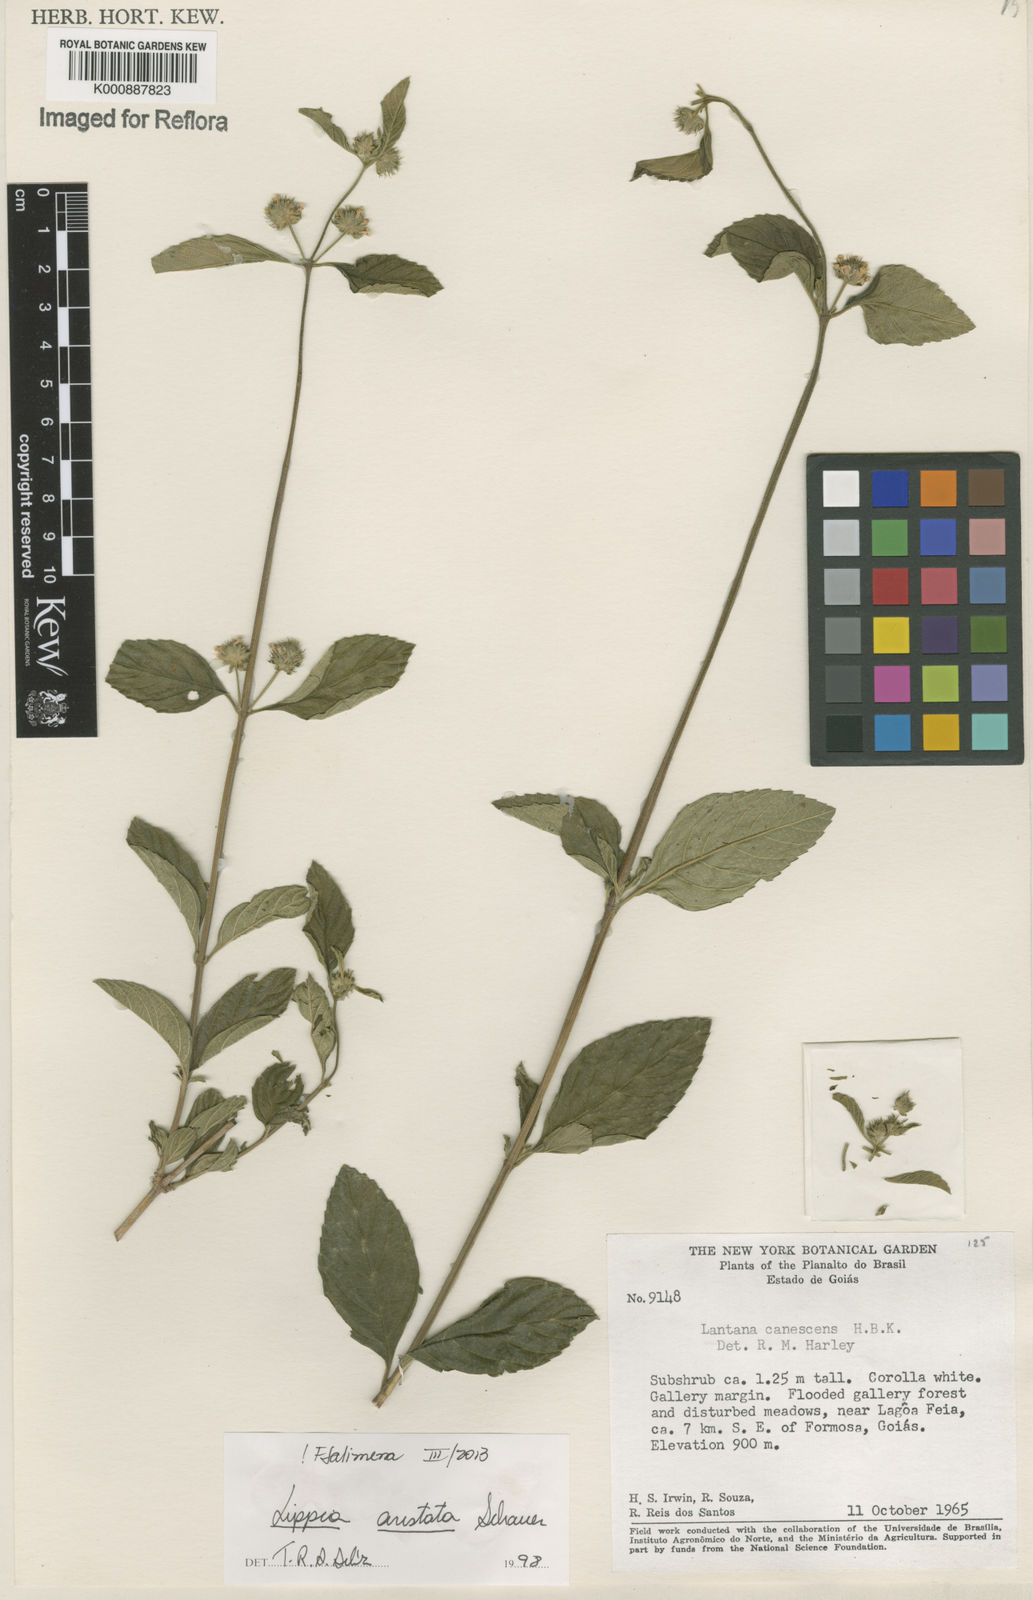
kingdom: Plantae
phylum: Tracheophyta
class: Magnoliopsida
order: Lamiales
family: Verbenaceae
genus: Lippia
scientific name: Lippia aristata
